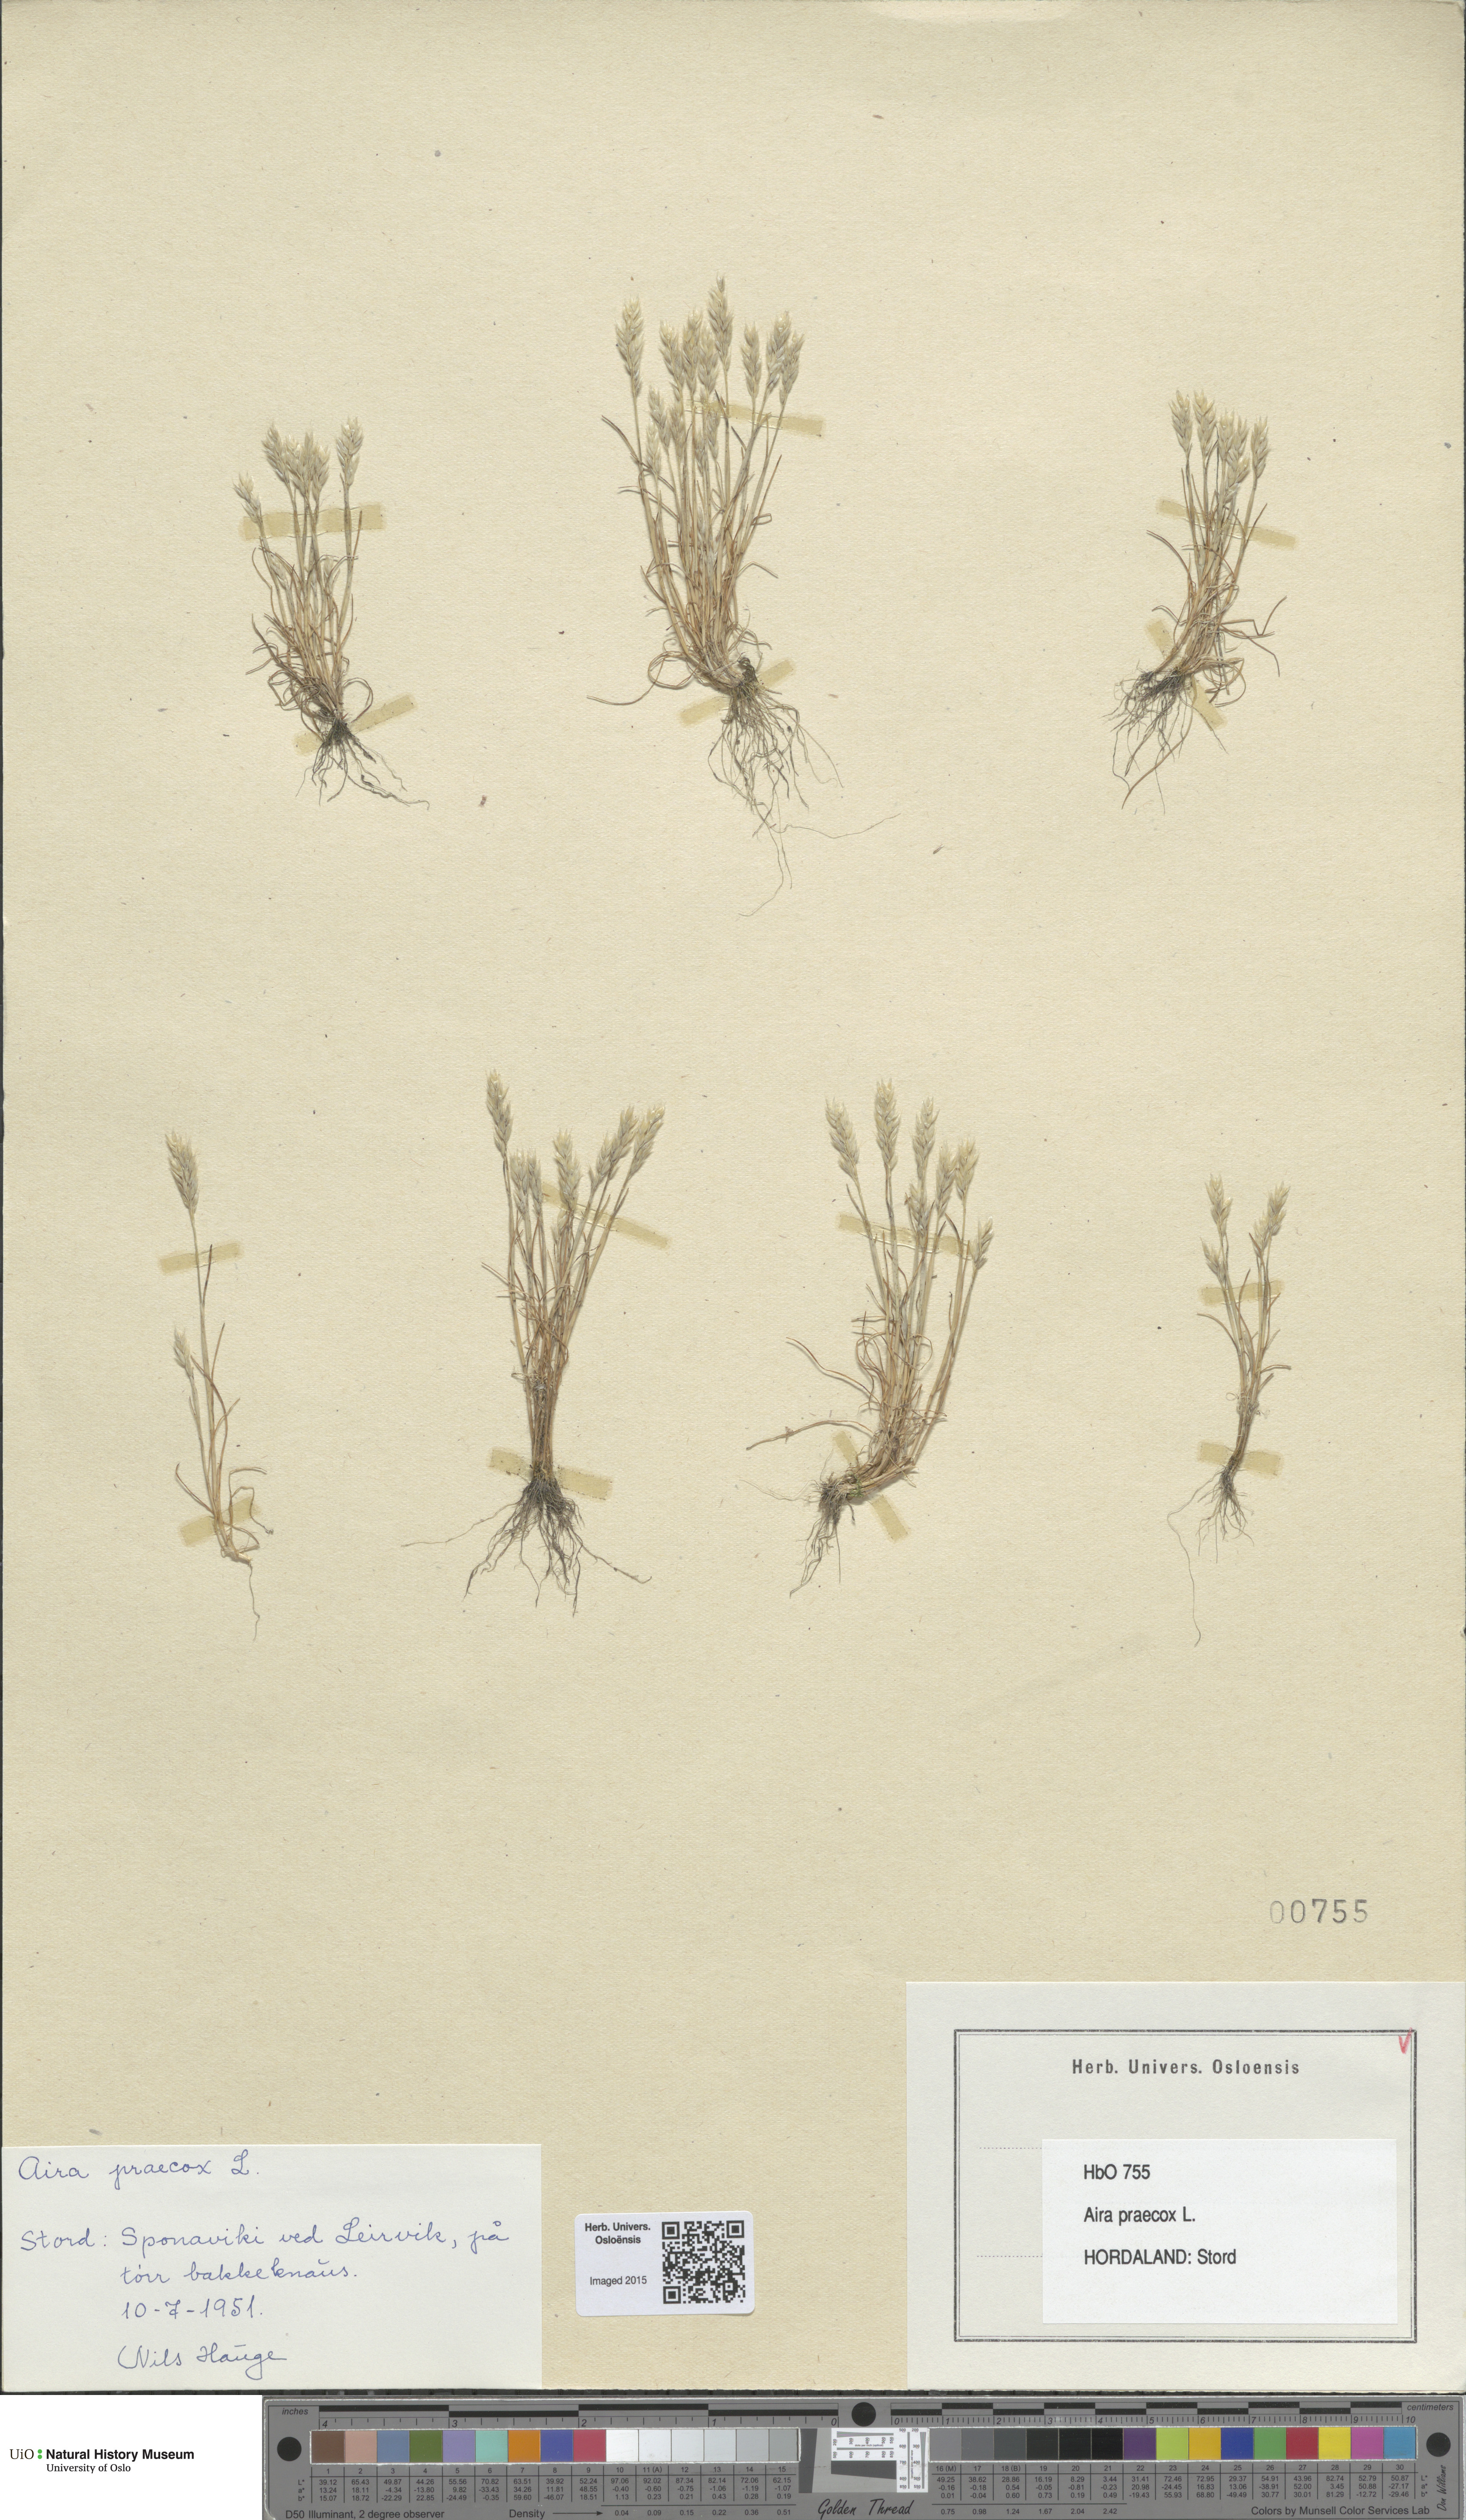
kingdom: Plantae
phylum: Tracheophyta
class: Liliopsida
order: Poales
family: Poaceae
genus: Aira
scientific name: Aira praecox
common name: Early hair-grass
